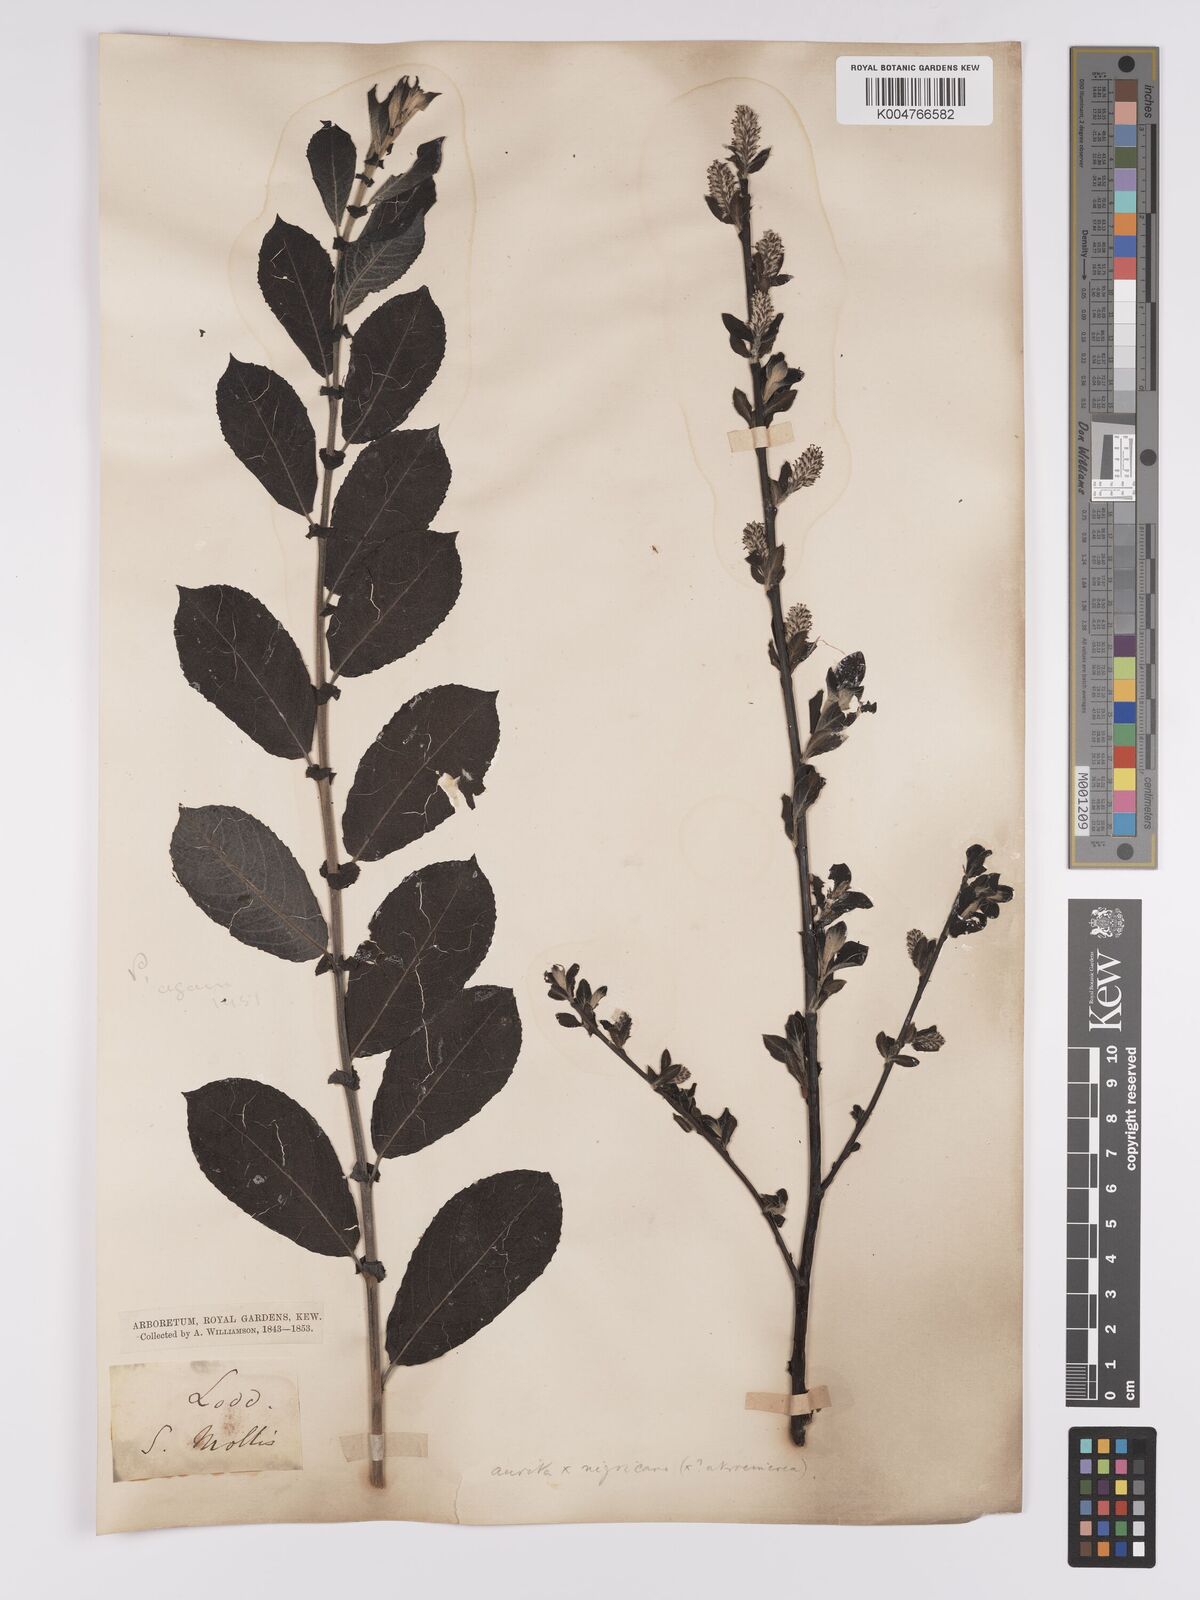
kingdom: Plantae
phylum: Tracheophyta
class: Magnoliopsida
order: Malpighiales
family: Salicaceae
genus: Salix
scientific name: Salix
